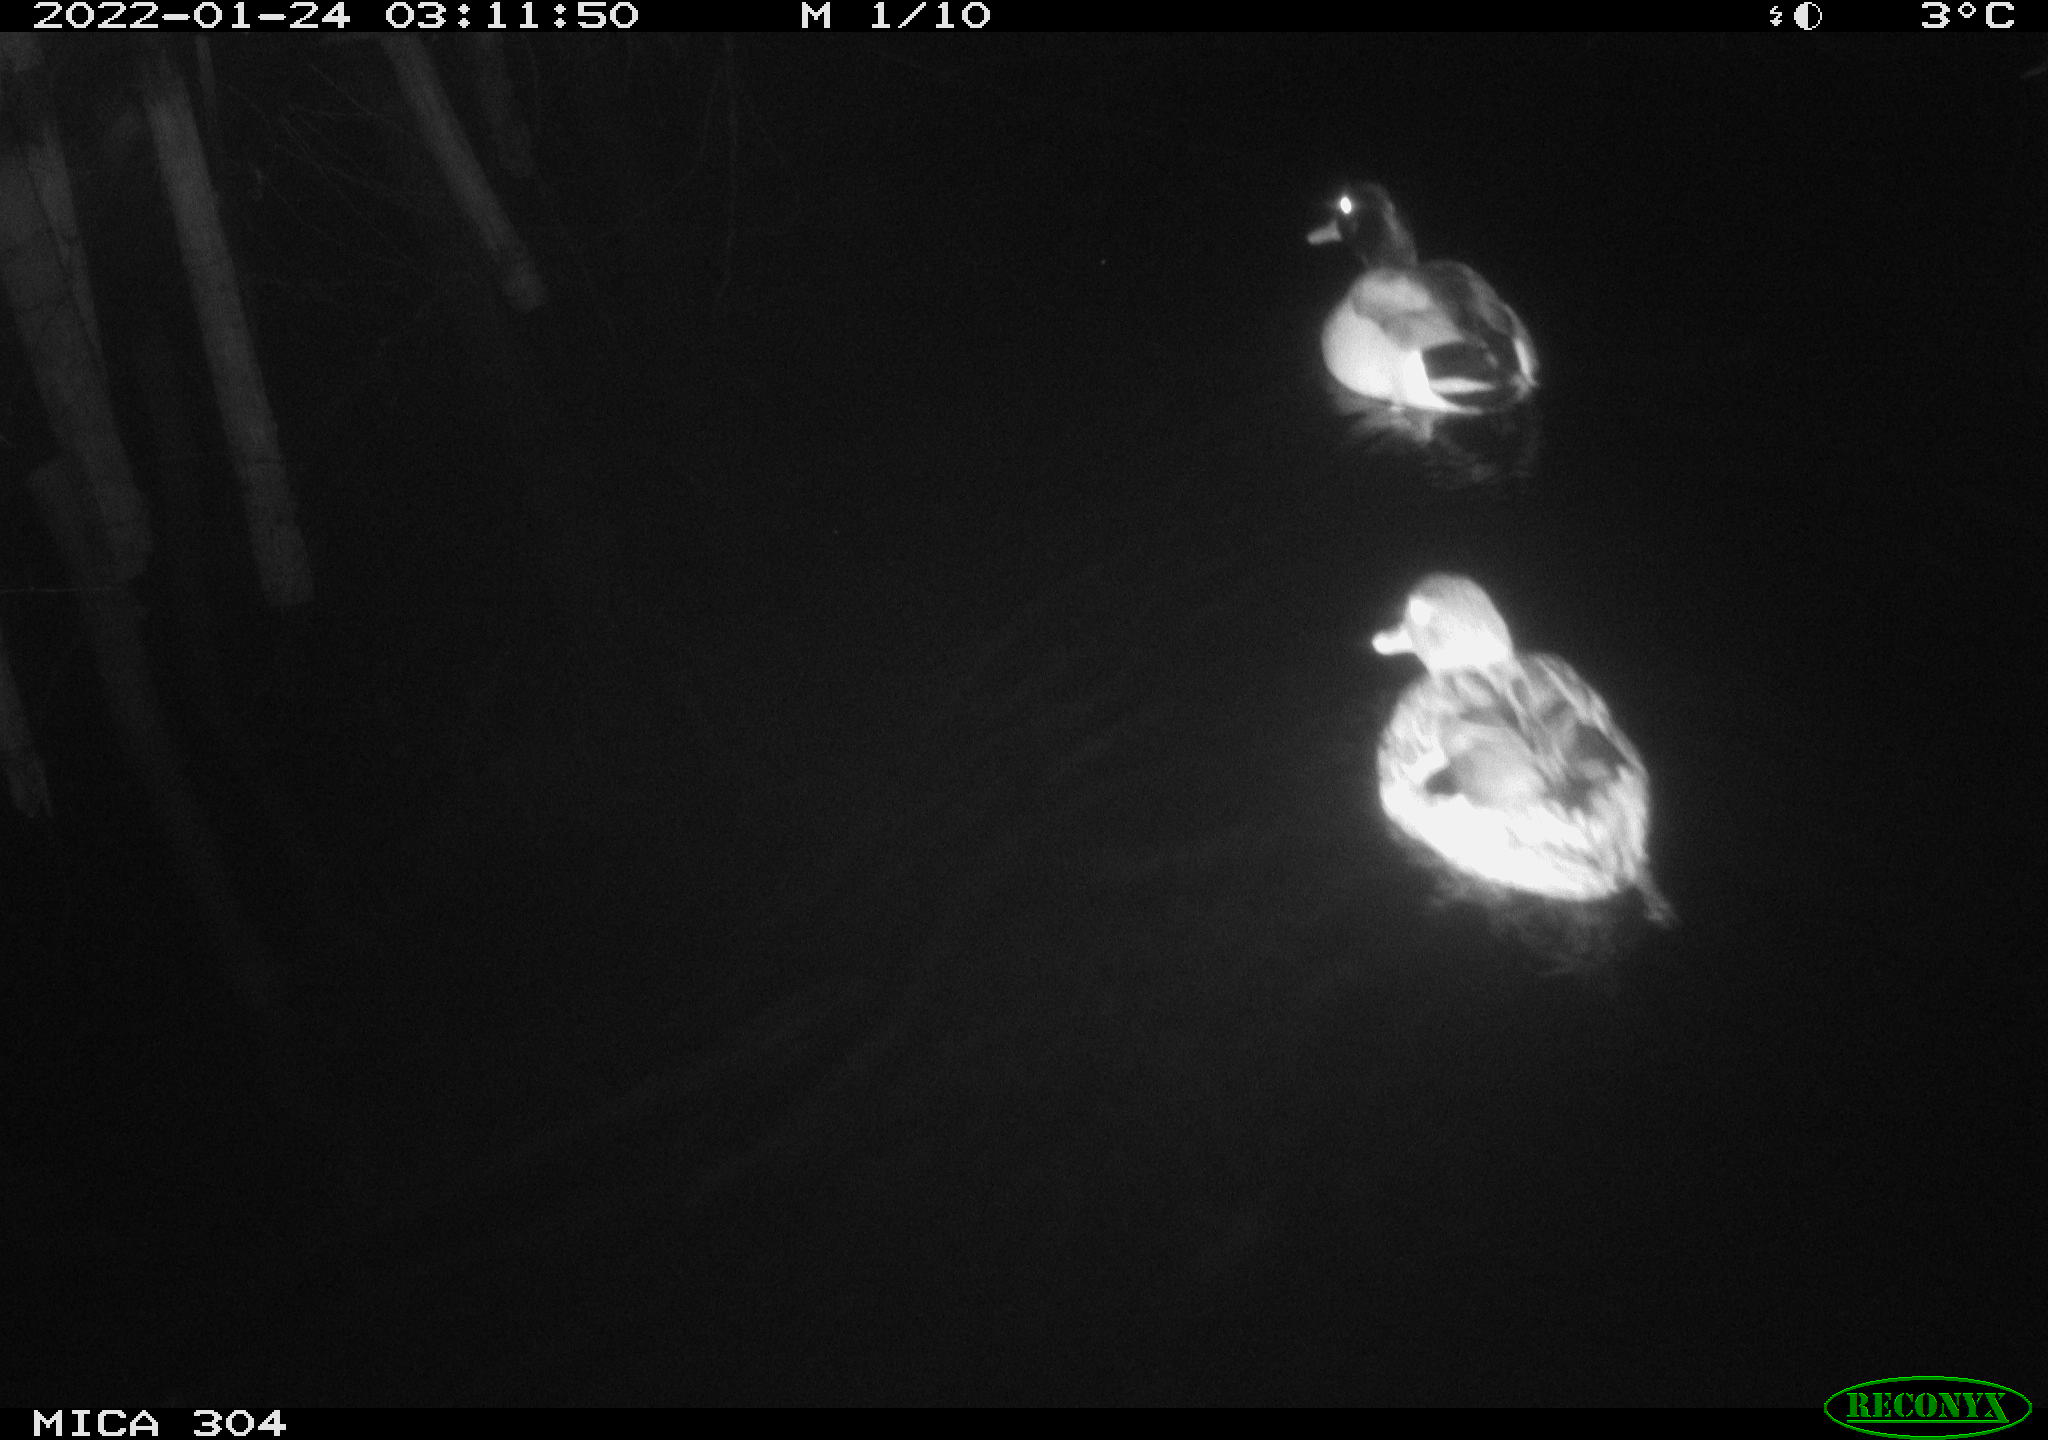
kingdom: Animalia
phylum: Chordata
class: Aves
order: Anseriformes
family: Anatidae
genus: Anas
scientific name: Anas
